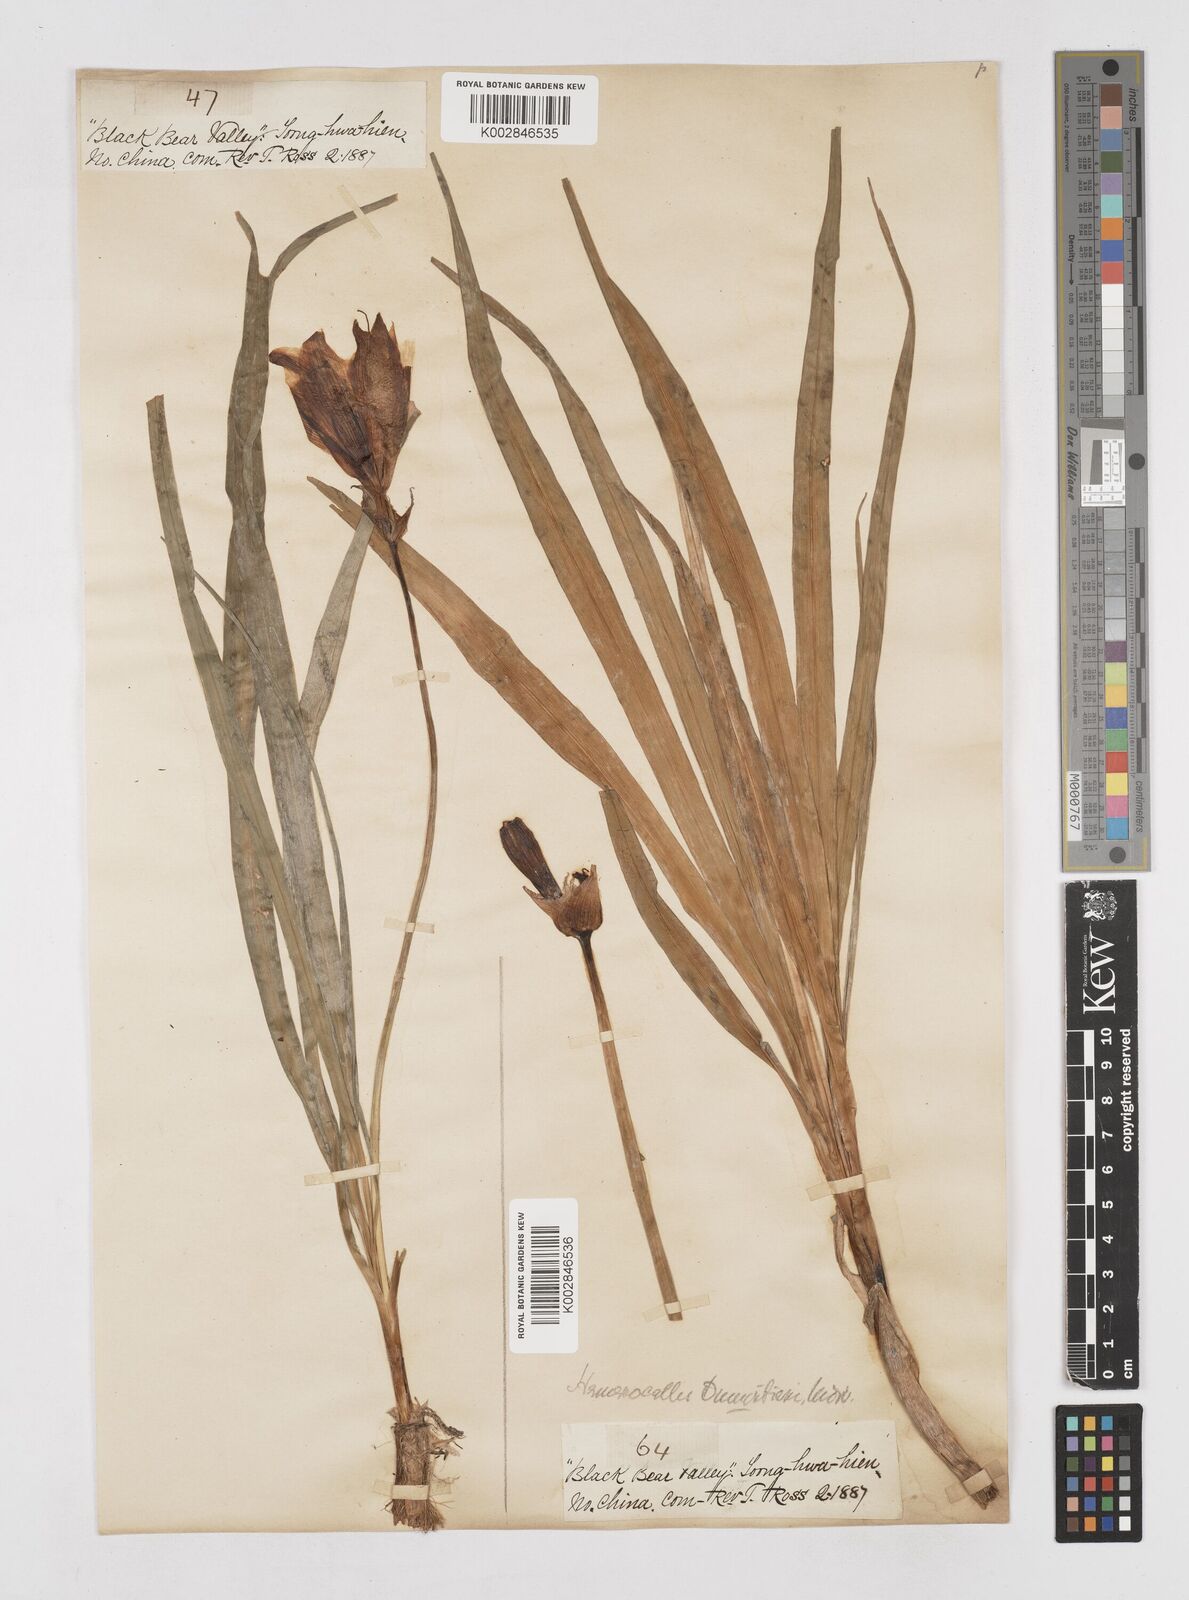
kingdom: Plantae
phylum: Tracheophyta
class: Liliopsida
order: Asparagales
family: Asphodelaceae
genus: Hemerocallis
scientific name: Hemerocallis middendorffii
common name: Amur day-lily
